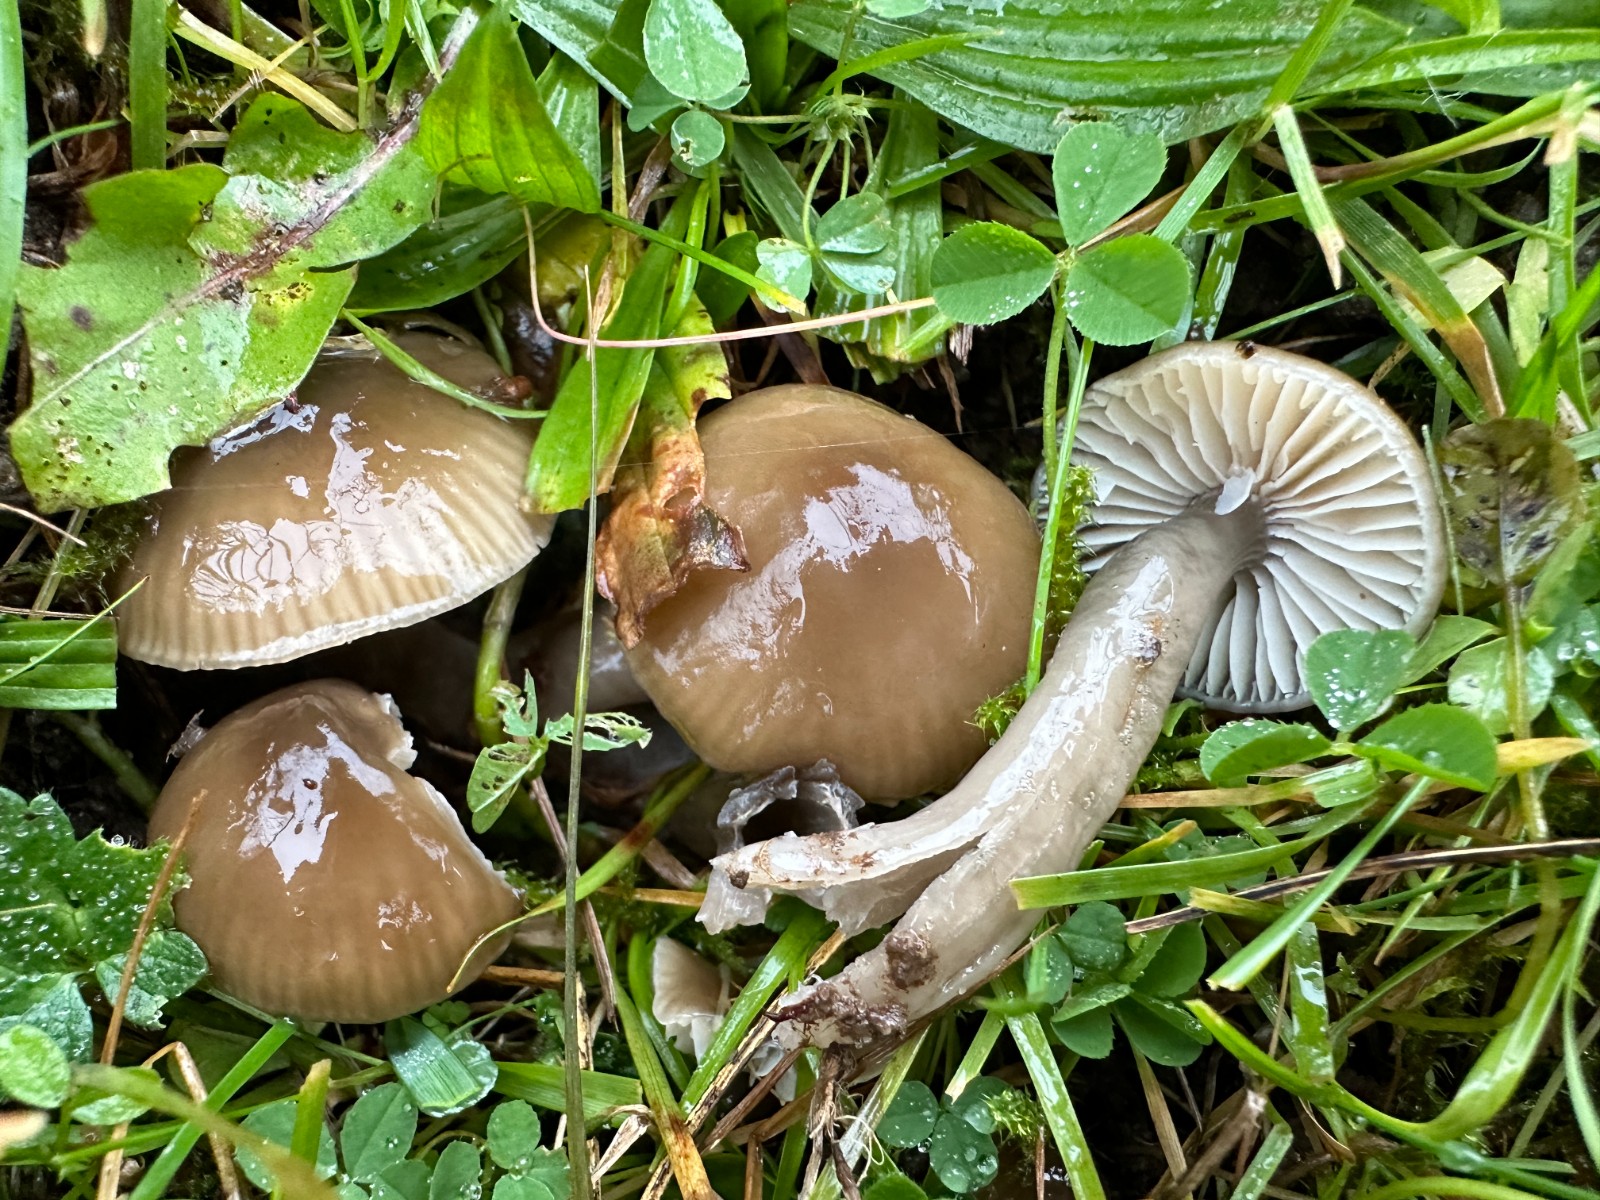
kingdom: Fungi
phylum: Basidiomycota
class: Agaricomycetes
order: Agaricales
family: Hygrophoraceae
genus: Gliophorus
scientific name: Gliophorus irrigatus
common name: slimet vokshat
